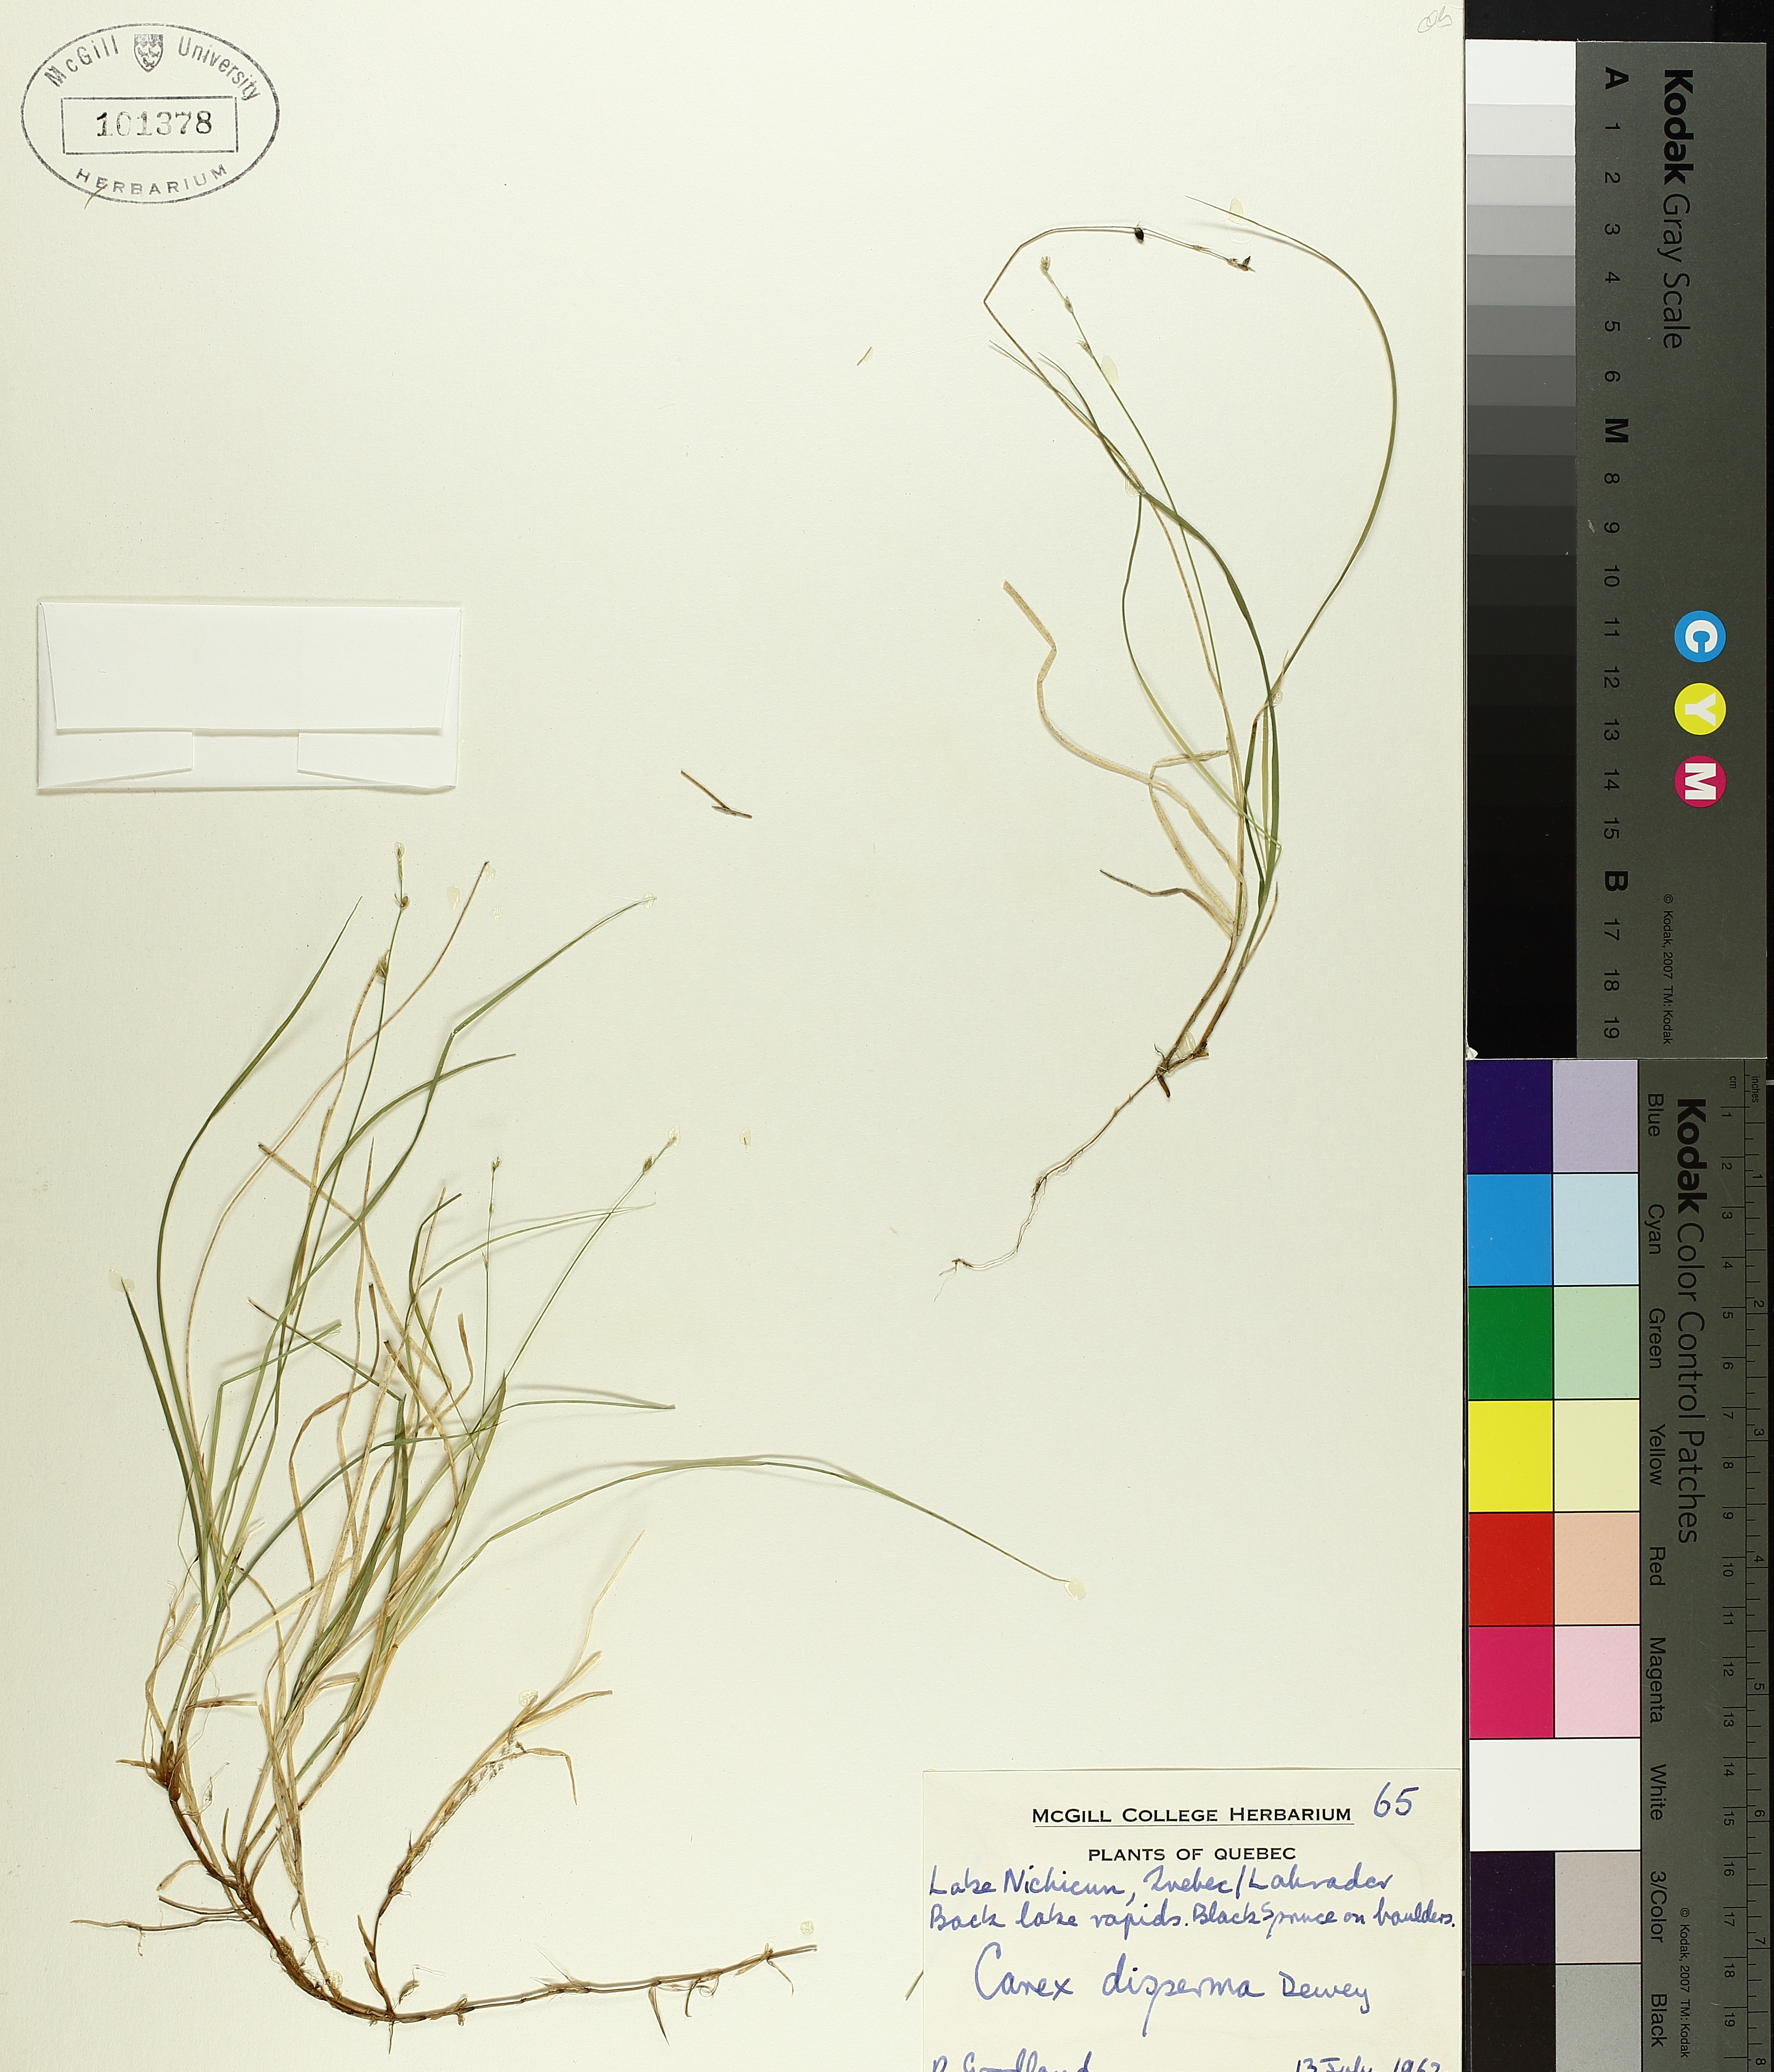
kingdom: Plantae
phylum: Tracheophyta
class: Liliopsida
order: Poales
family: Cyperaceae
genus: Carex
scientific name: Carex disperma
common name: Short-leaved sedge
